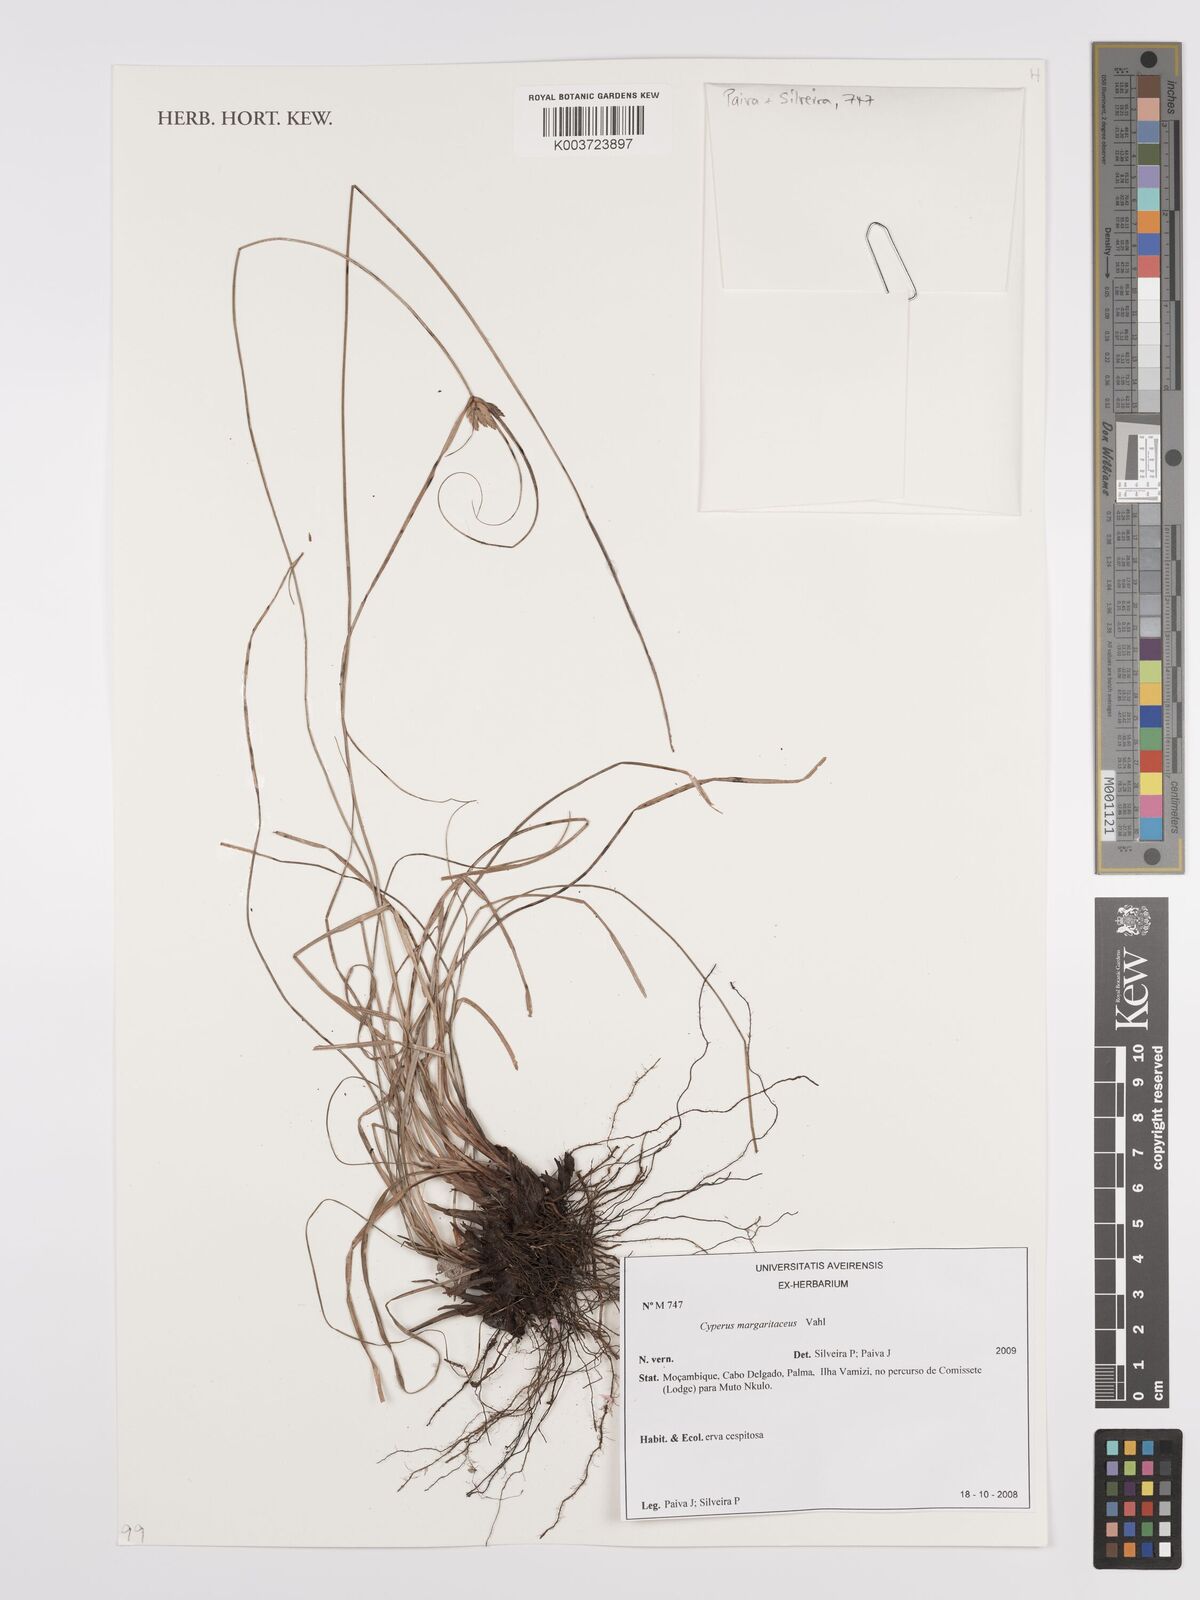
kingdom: Plantae
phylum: Tracheophyta
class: Liliopsida
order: Poales
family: Cyperaceae
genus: Cyperus
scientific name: Cyperus margaritaceus
